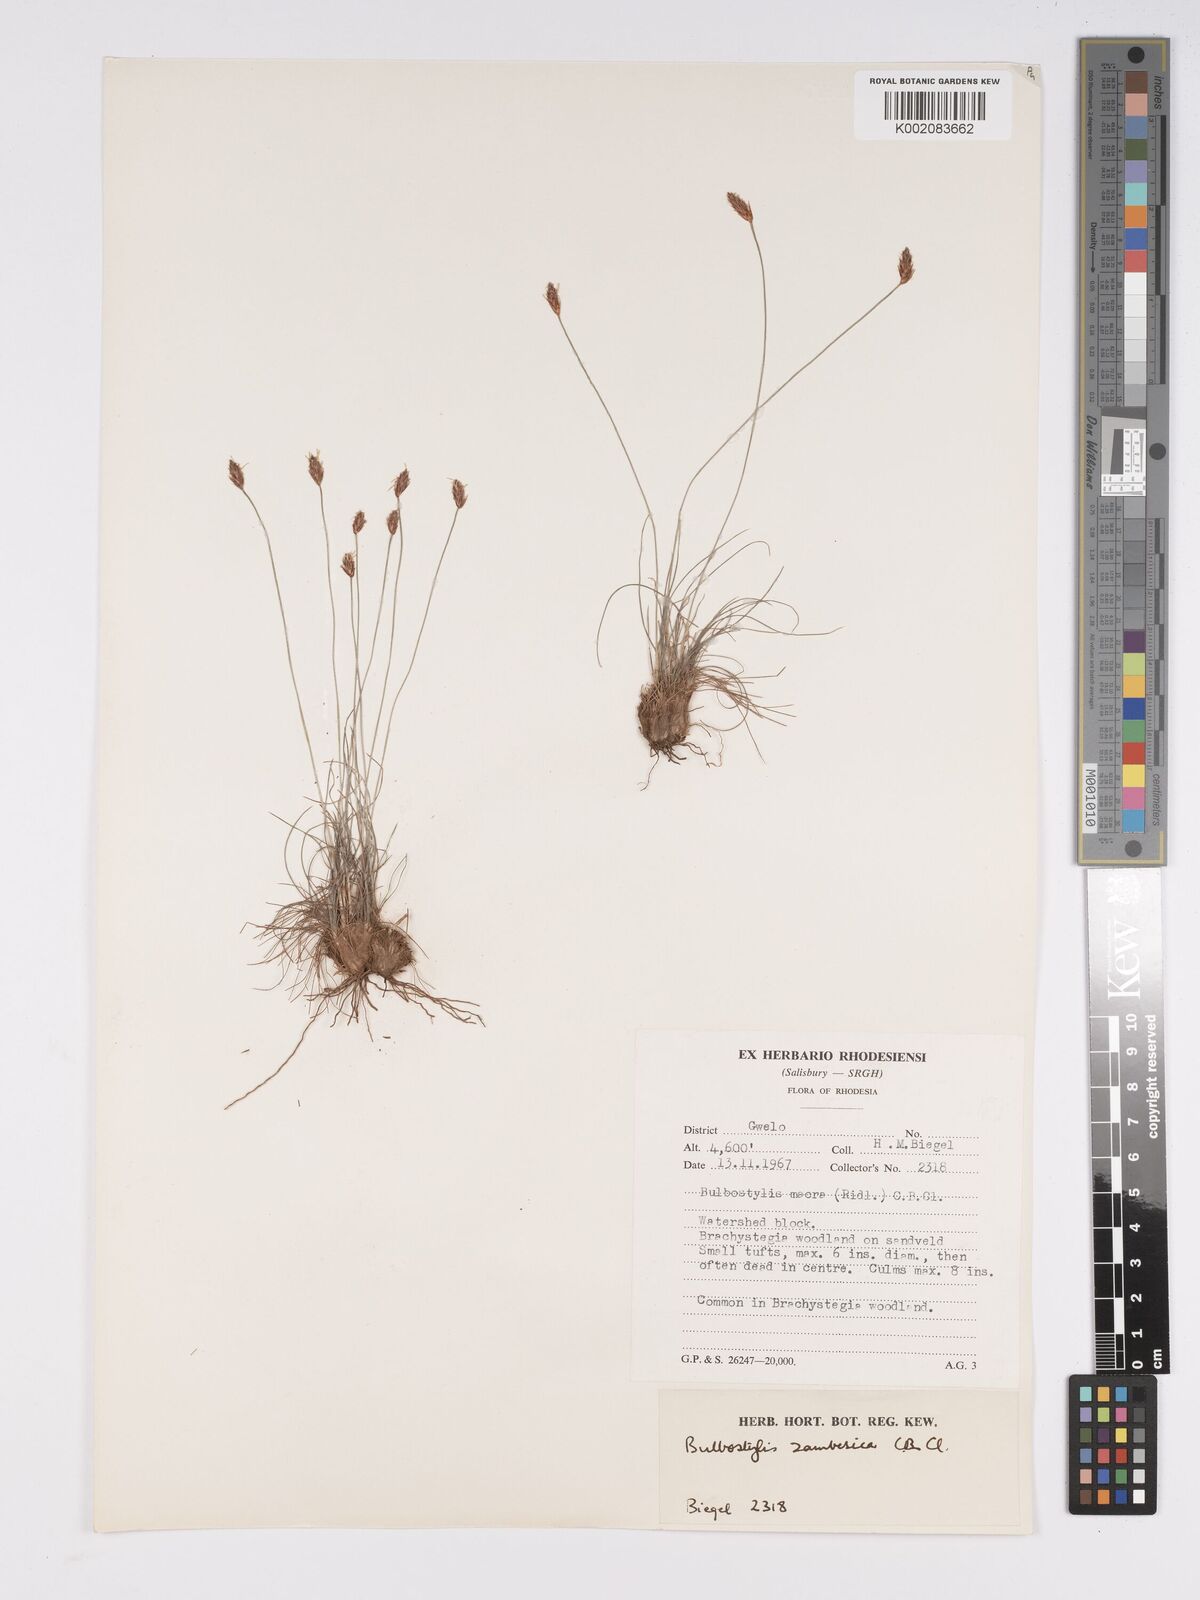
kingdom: Plantae
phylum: Tracheophyta
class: Liliopsida
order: Poales
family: Cyperaceae
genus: Bulbostylis
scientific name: Bulbostylis macra
